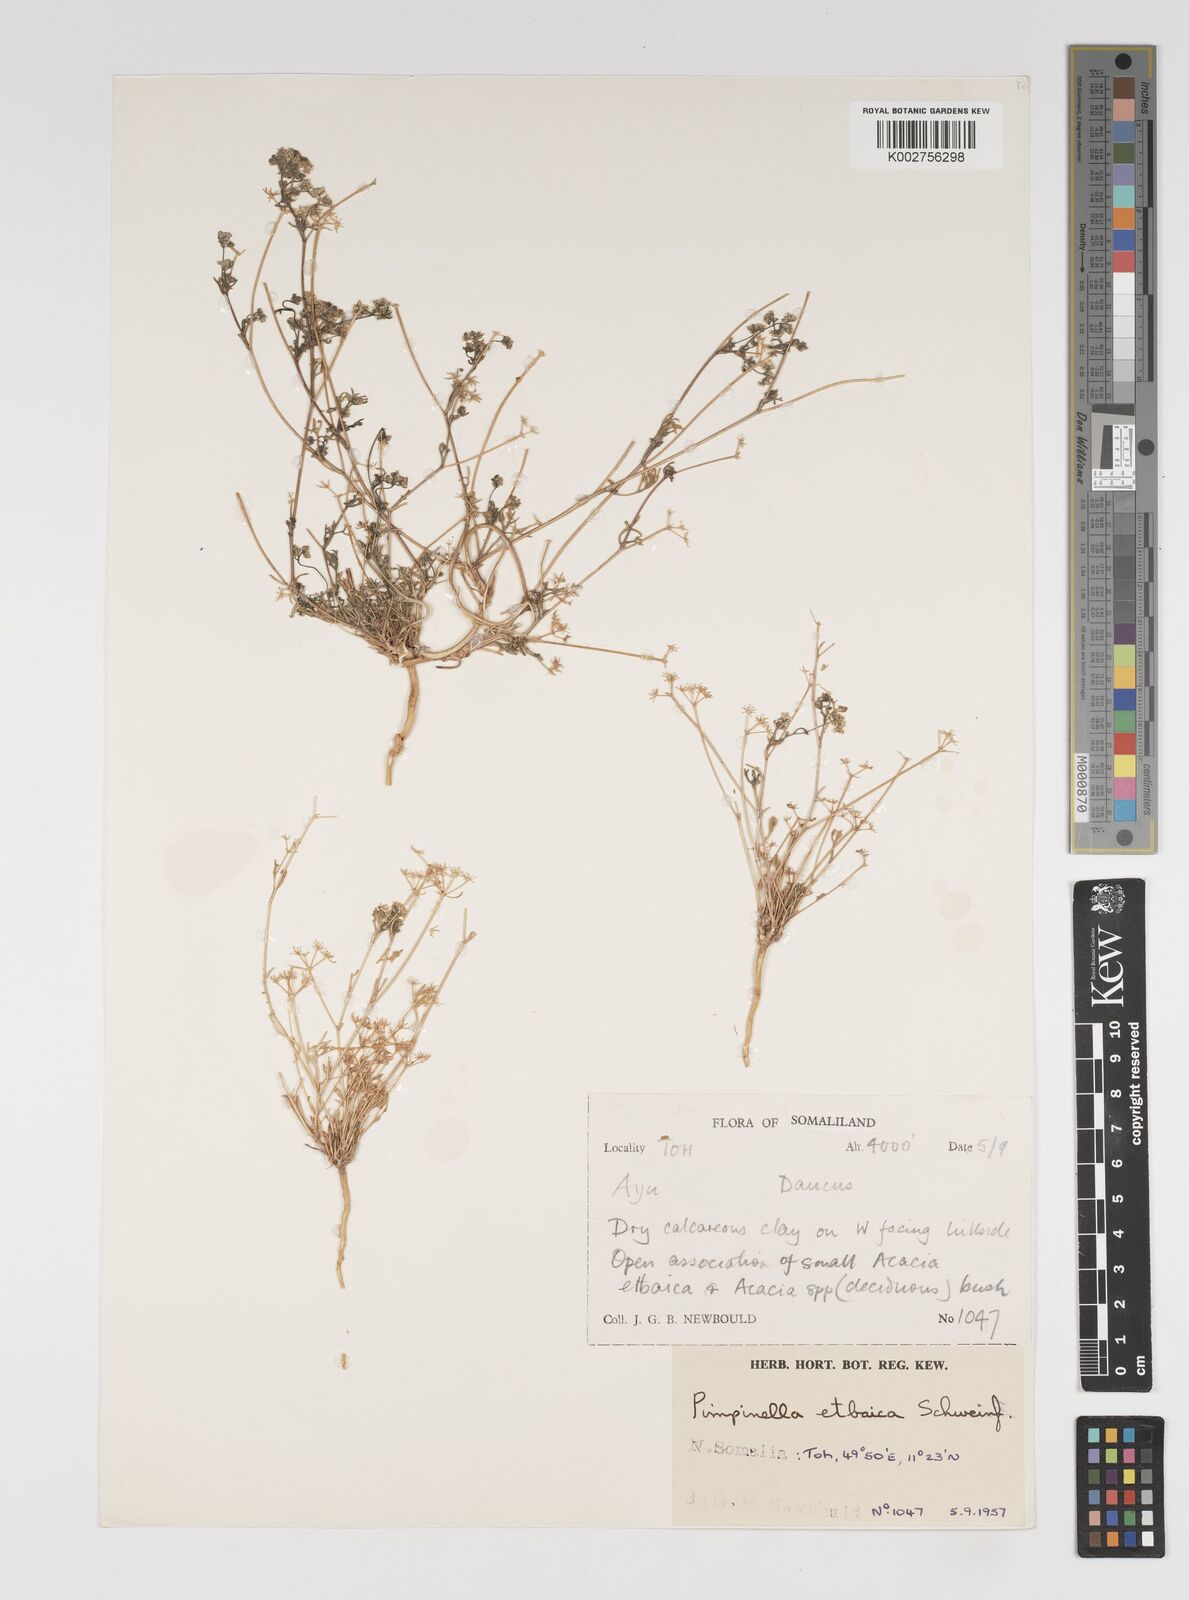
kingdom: Plantae
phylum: Tracheophyta
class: Magnoliopsida
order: Apiales
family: Apiaceae
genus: Pimpinella
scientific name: Pimpinella etbaica
